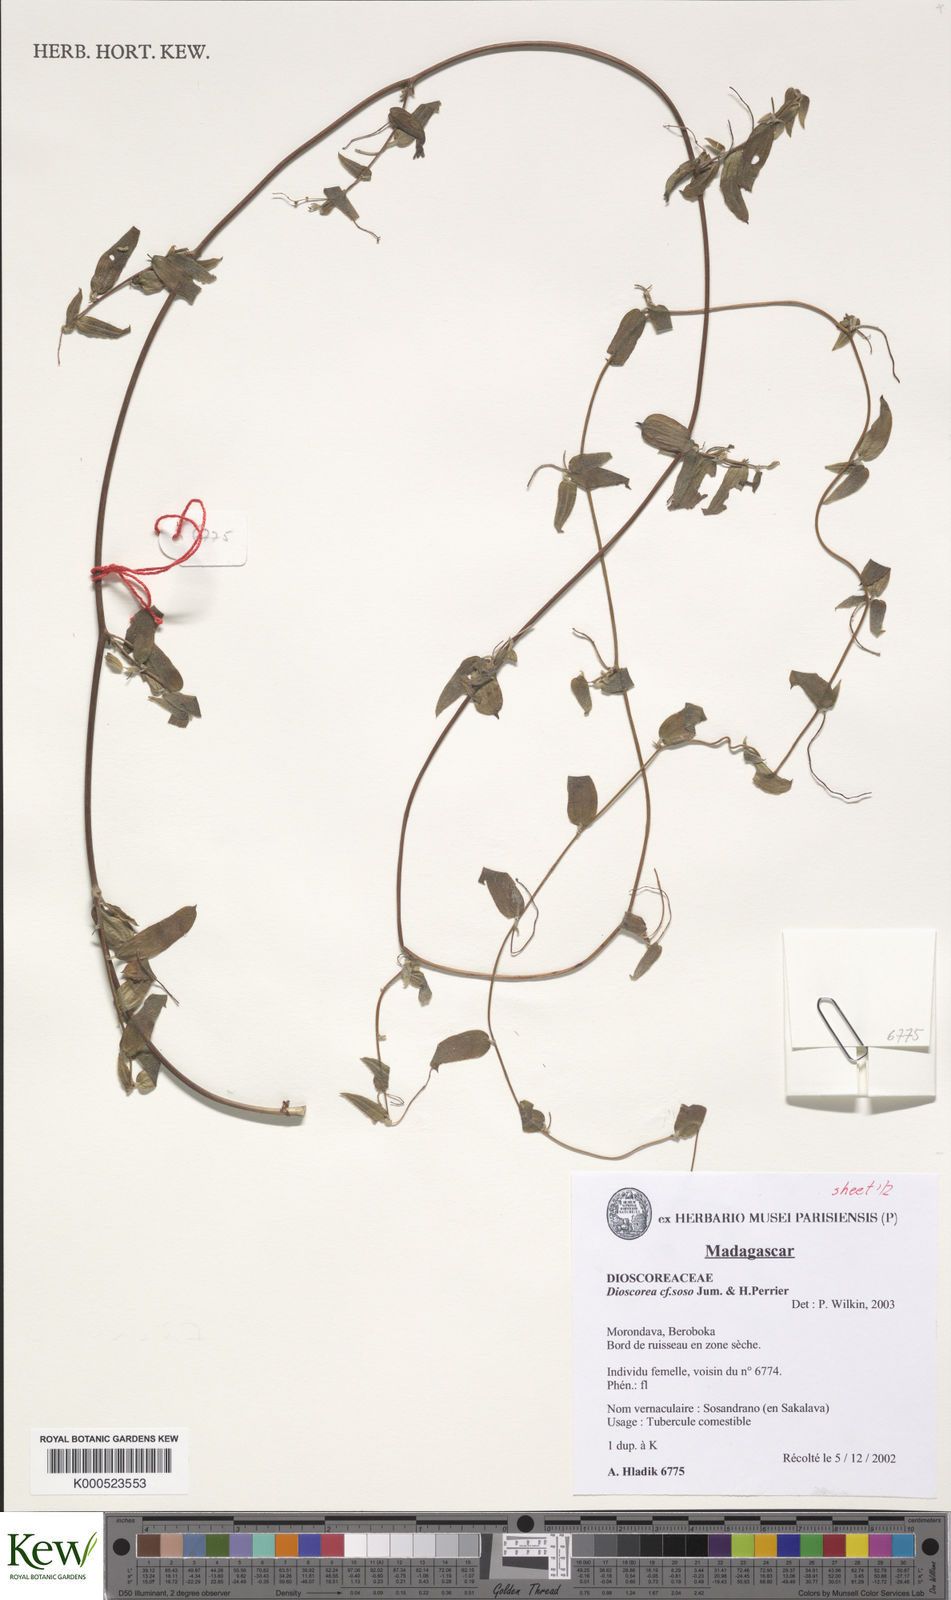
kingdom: Plantae
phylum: Tracheophyta
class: Liliopsida
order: Dioscoreales
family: Dioscoreaceae
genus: Dioscorea
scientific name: Dioscorea soso
